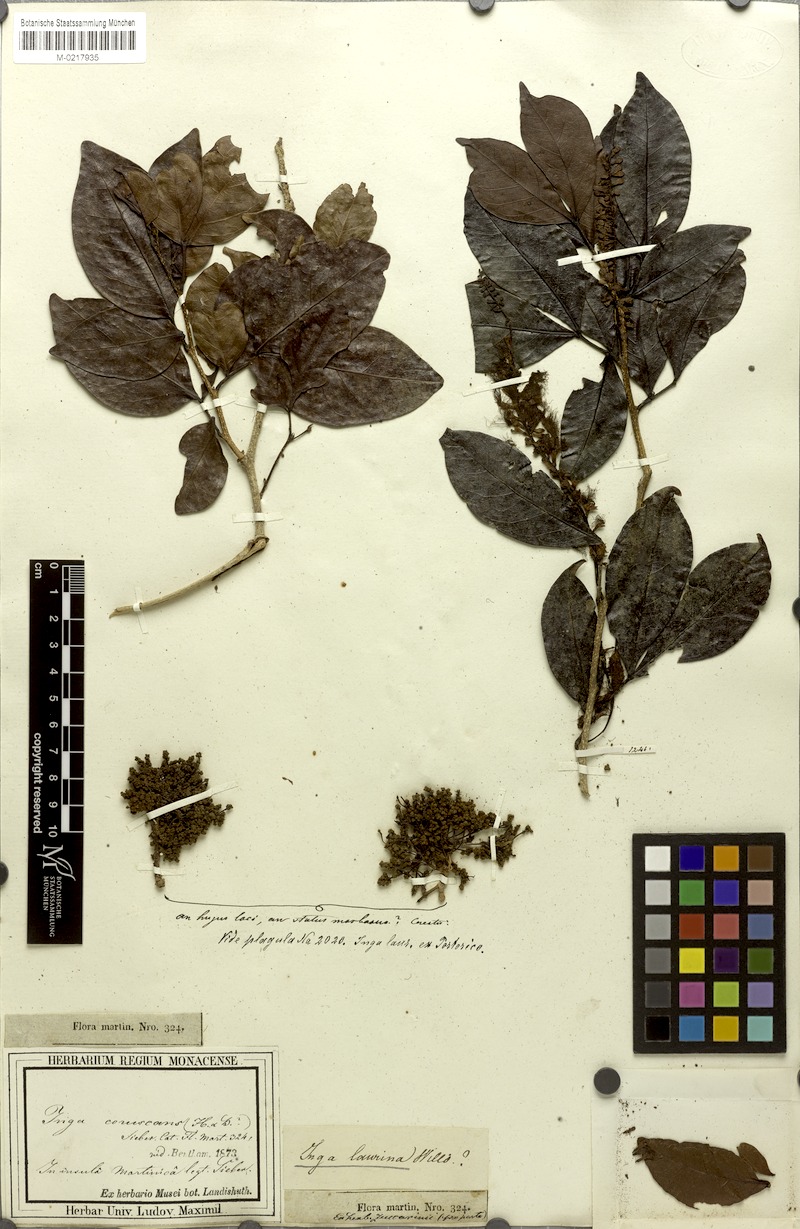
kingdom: Plantae
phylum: Tracheophyta
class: Magnoliopsida
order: Fabales
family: Fabaceae
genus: Inga
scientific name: Inga laurina
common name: Red wood
